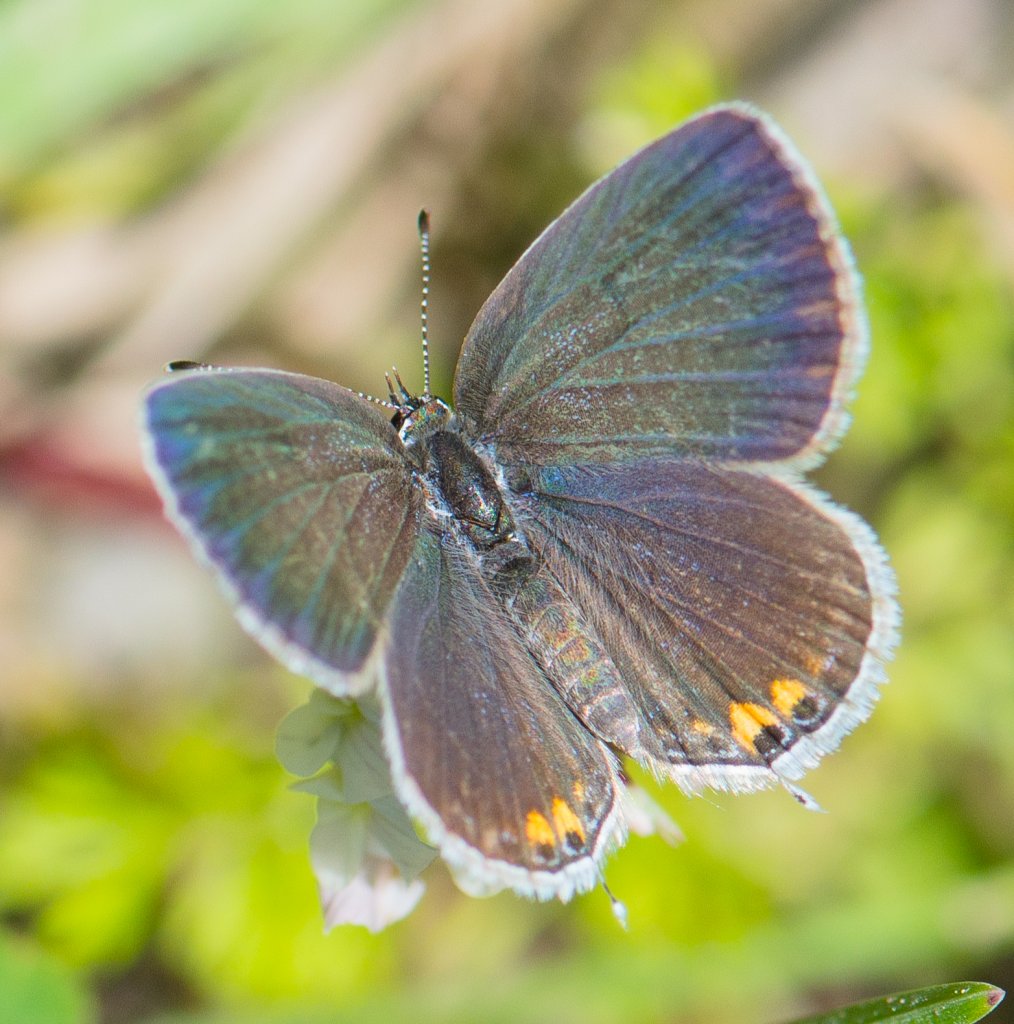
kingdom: Animalia
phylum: Arthropoda
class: Insecta
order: Lepidoptera
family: Lycaenidae
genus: Elkalyce
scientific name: Elkalyce comyntas
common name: Eastern Tailed-Blue
